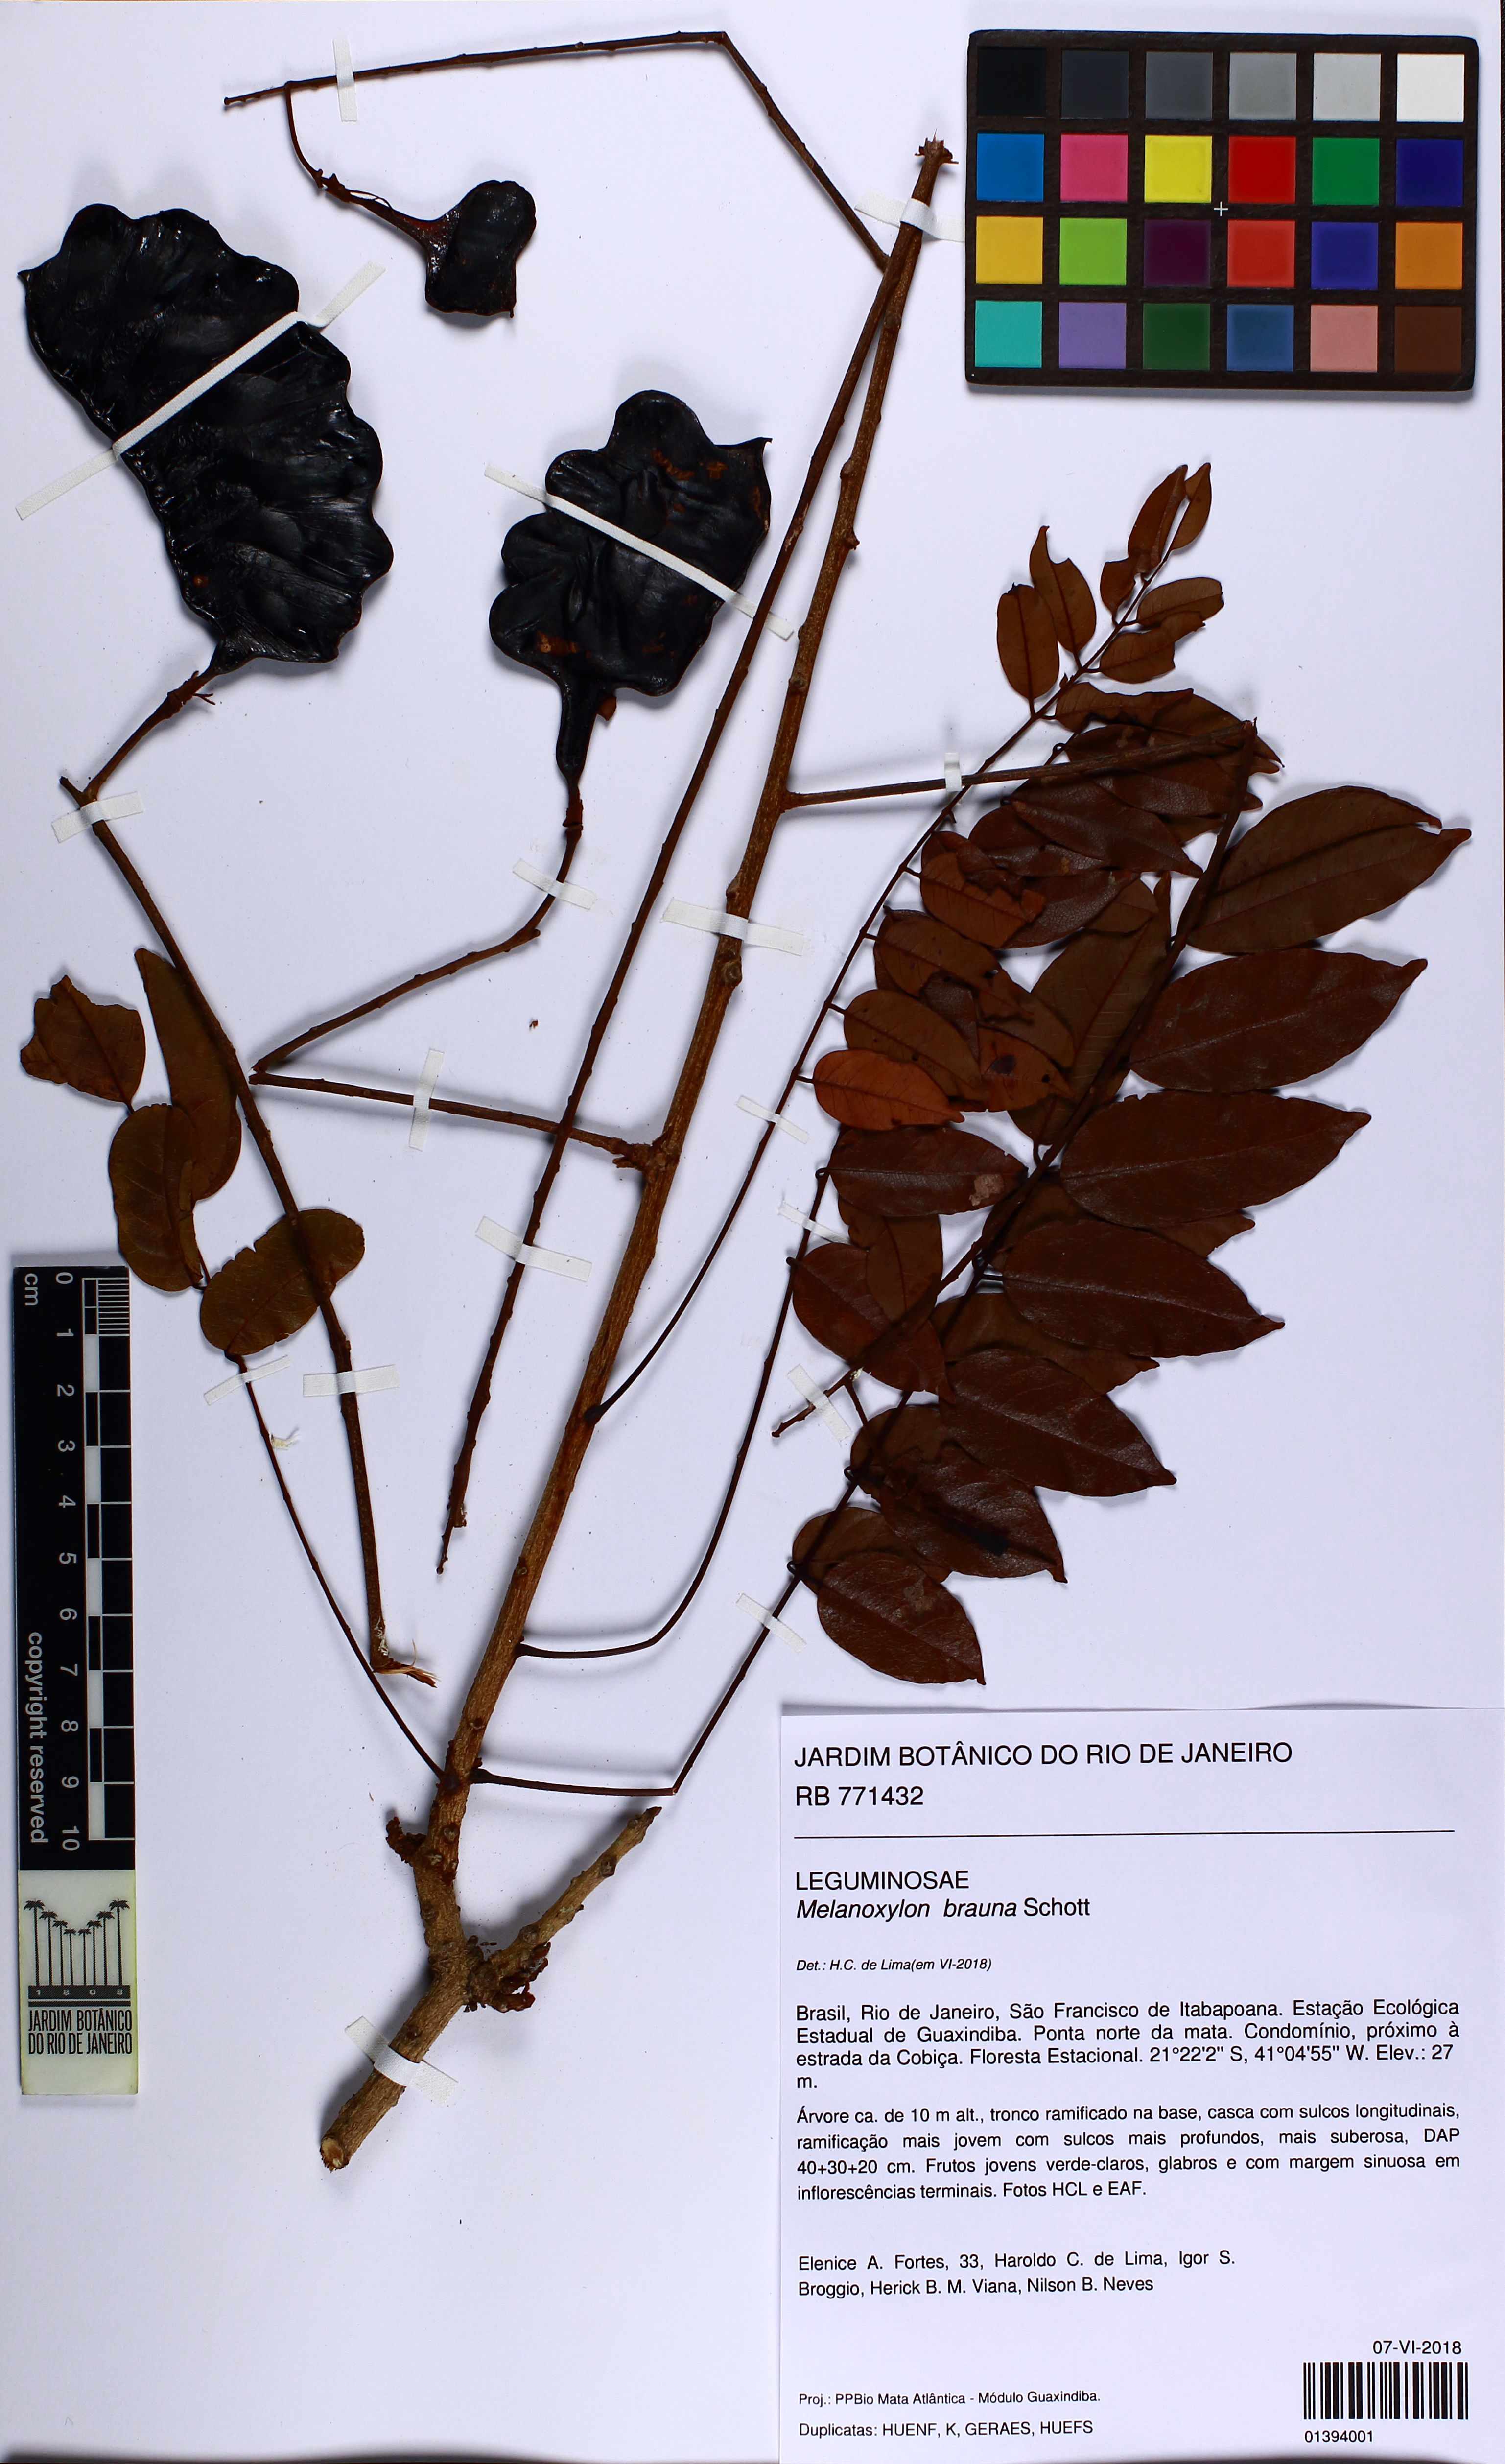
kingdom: Plantae
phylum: Tracheophyta
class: Magnoliopsida
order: Fabales
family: Fabaceae
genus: Melanoxylon
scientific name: Melanoxylon brauna
